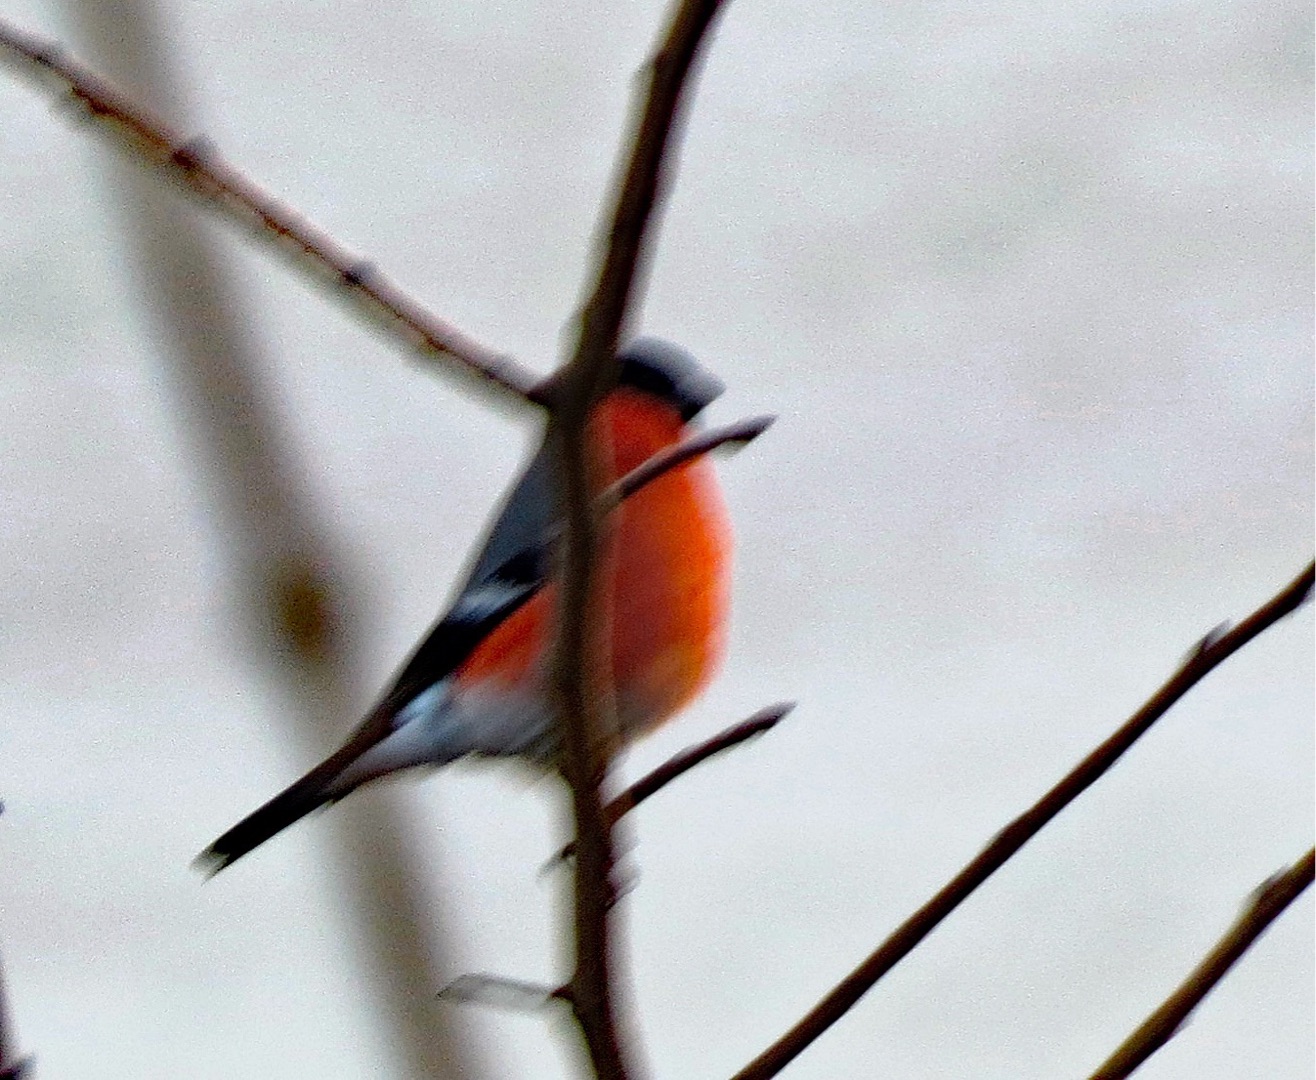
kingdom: Animalia
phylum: Chordata
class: Aves
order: Passeriformes
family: Fringillidae
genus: Pyrrhula
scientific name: Pyrrhula pyrrhula
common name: Dompap
